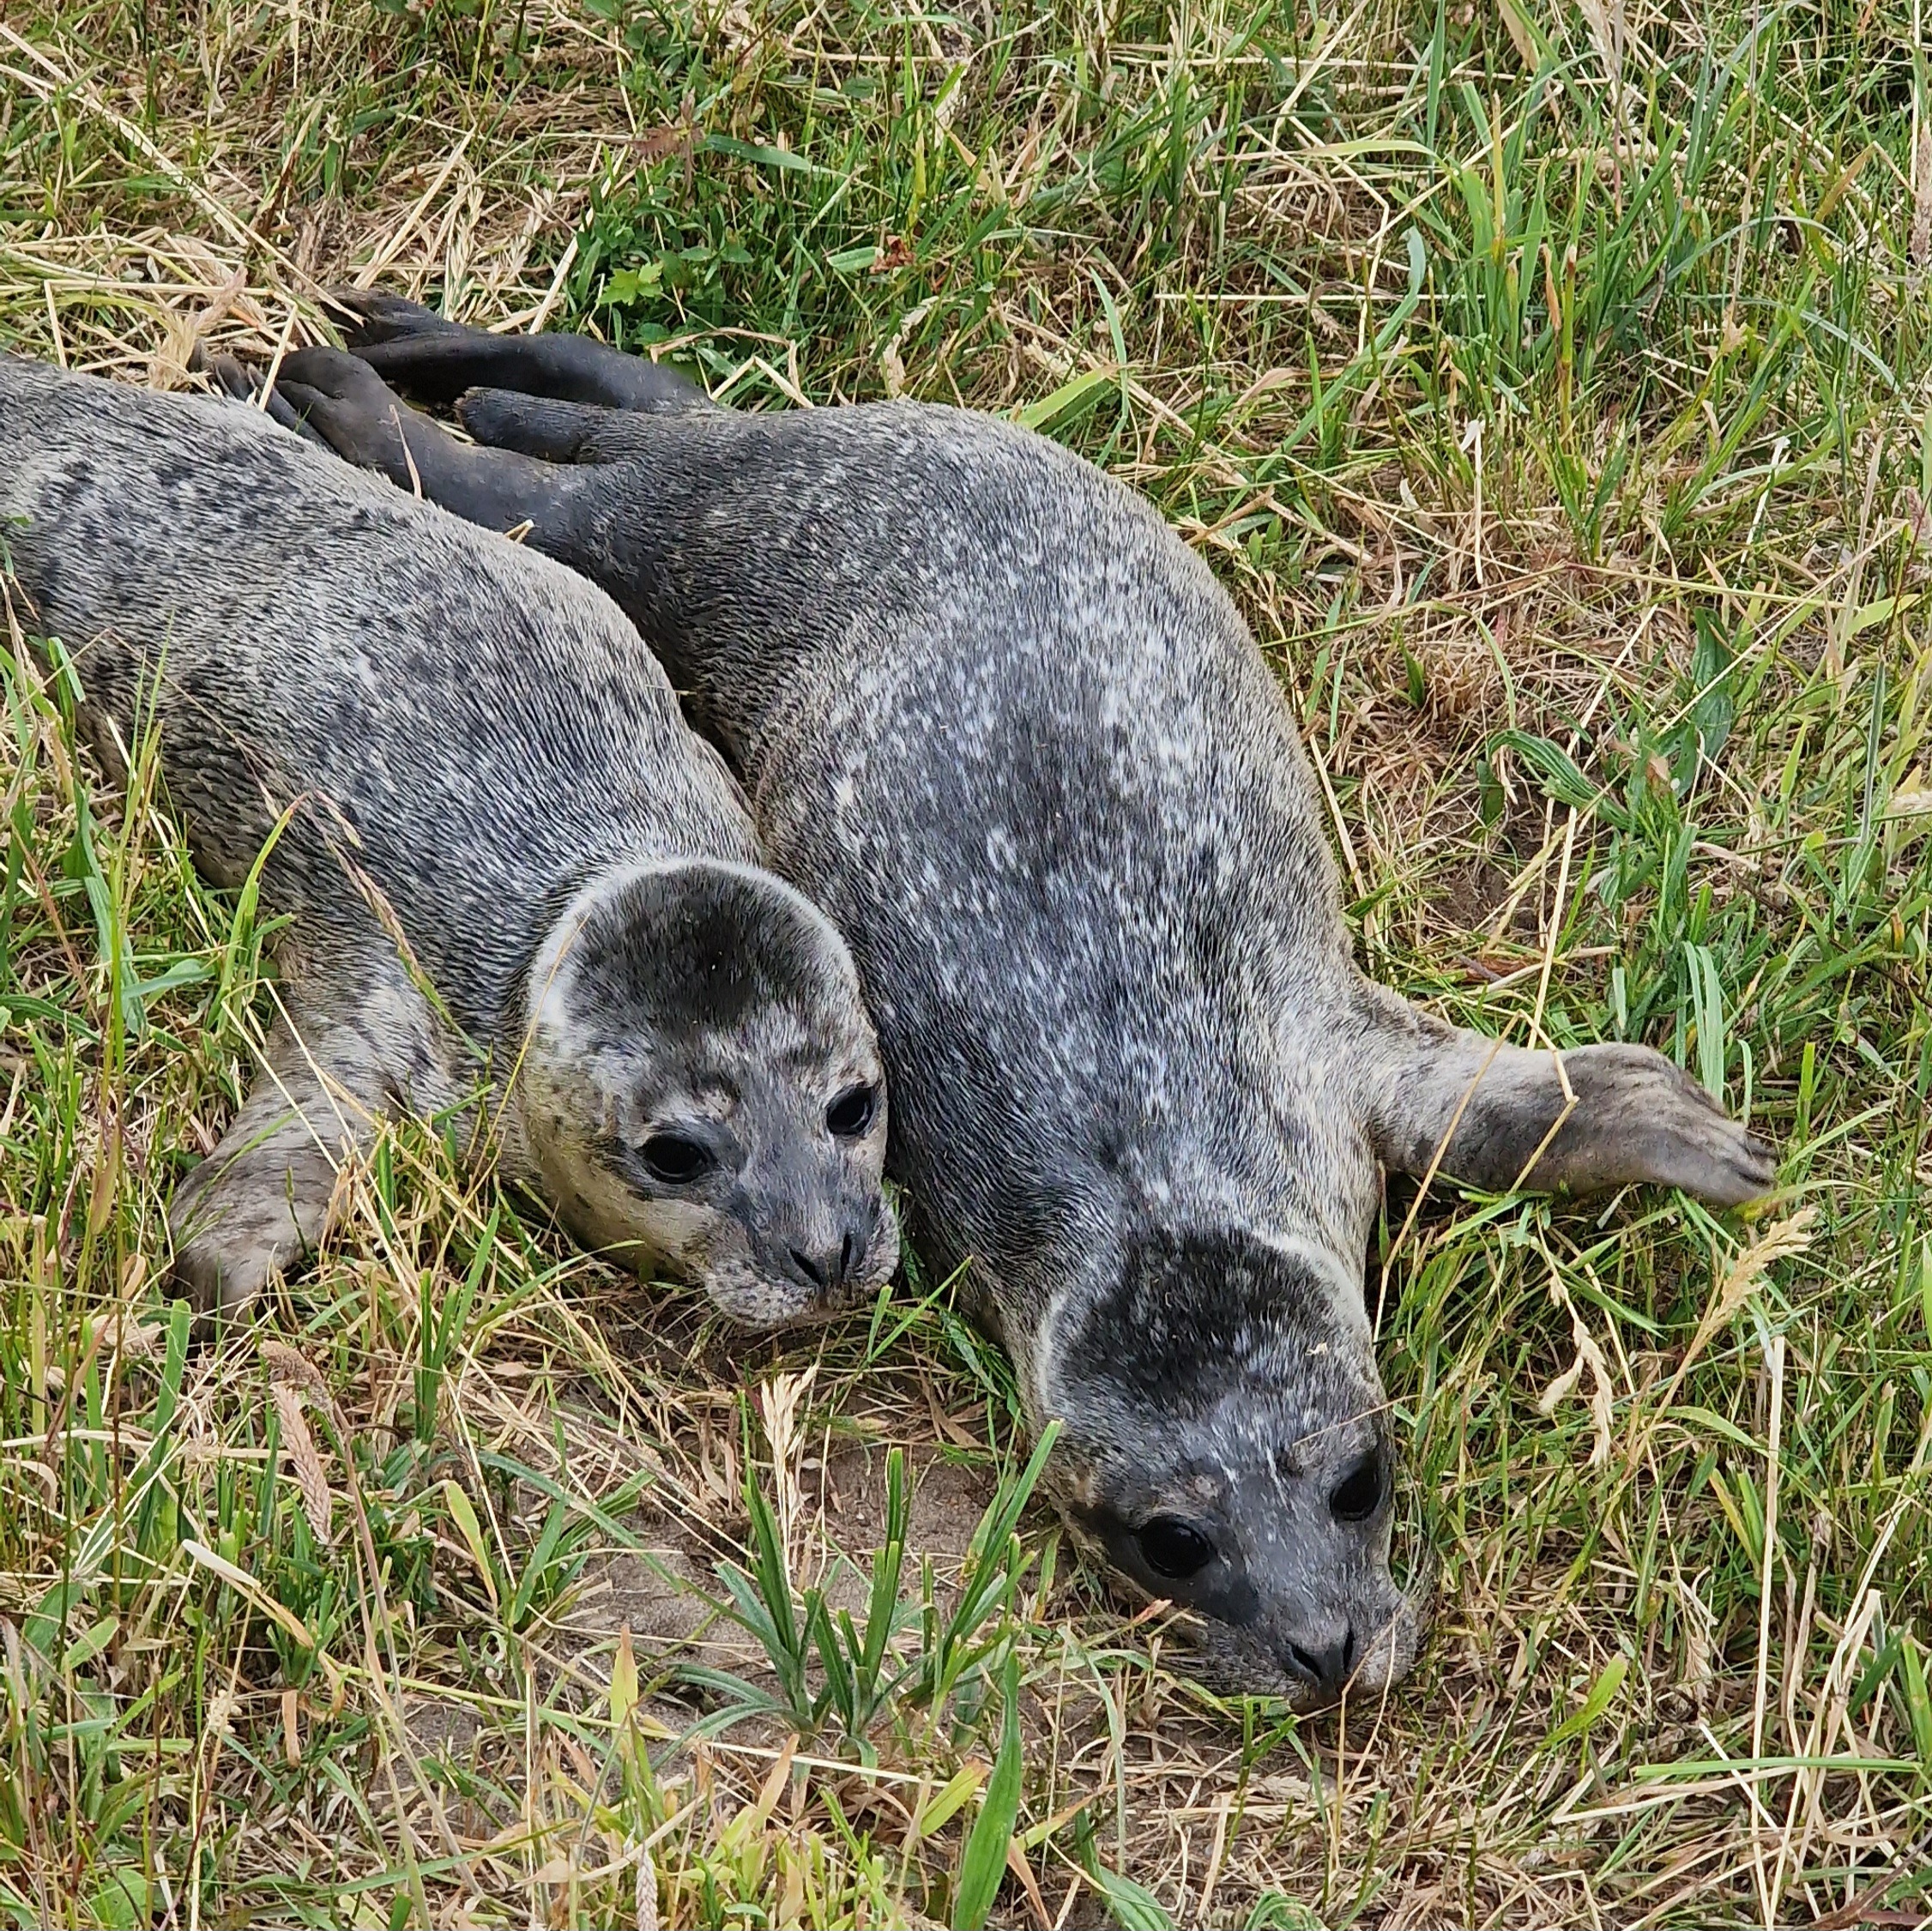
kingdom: Animalia
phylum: Chordata
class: Mammalia
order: Carnivora
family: Phocidae
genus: Phoca
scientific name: Phoca vitulina
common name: Spættet sæl
